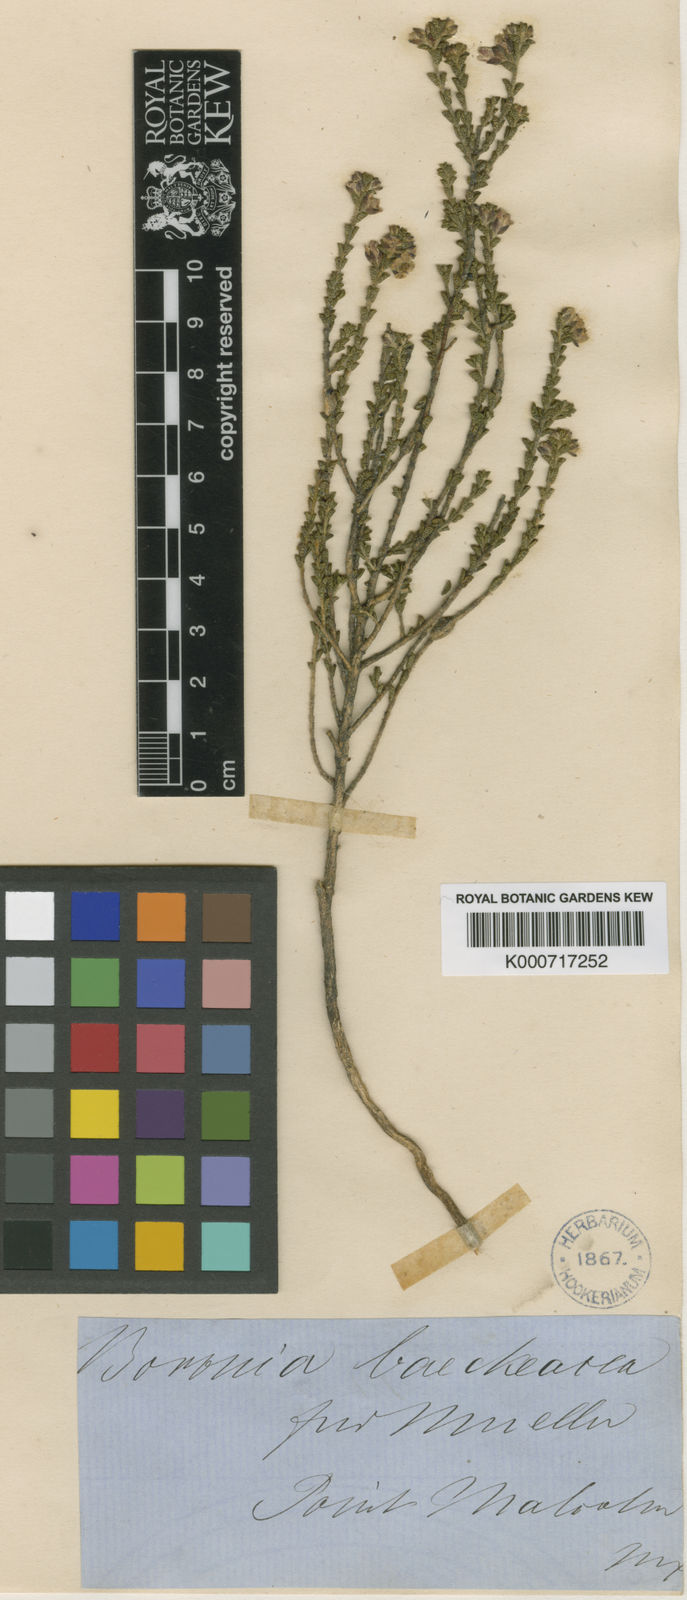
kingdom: Plantae
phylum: Tracheophyta
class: Magnoliopsida
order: Sapindales
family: Rutaceae
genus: Cyanothamnus
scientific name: Cyanothamnus baeckeaceus
